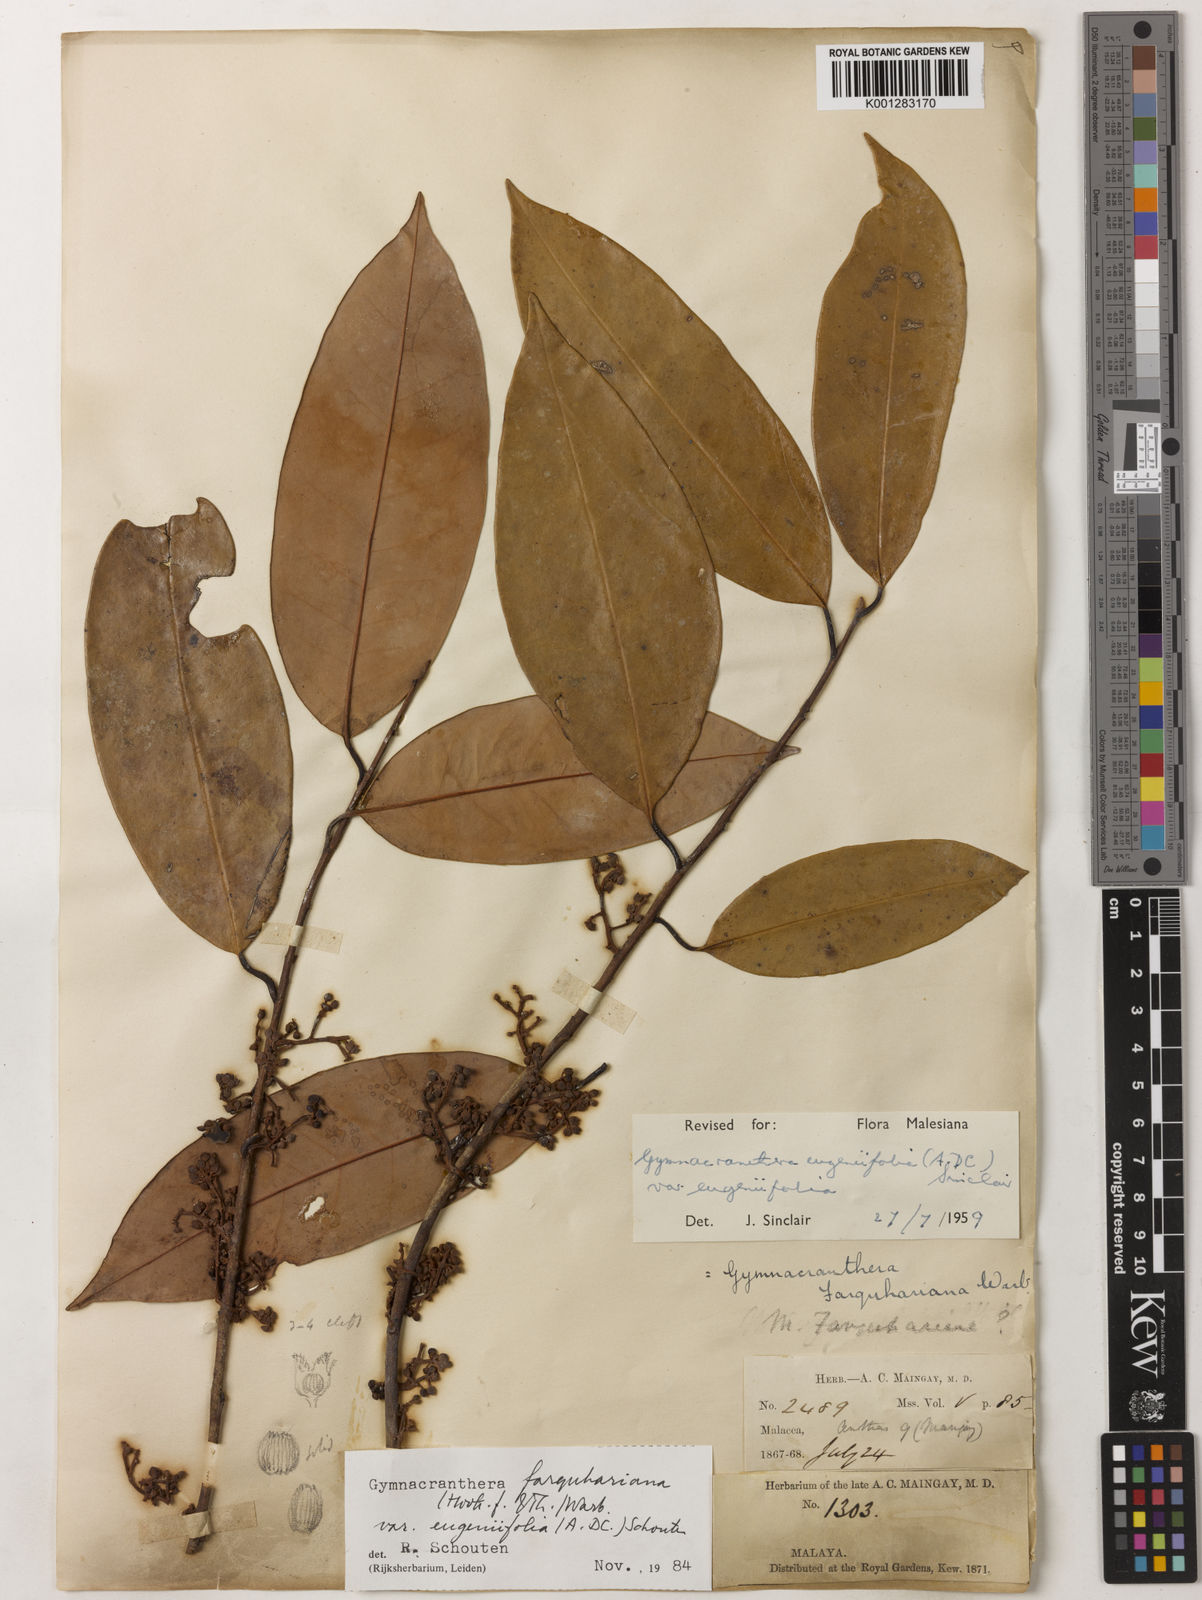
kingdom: Plantae
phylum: Tracheophyta
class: Magnoliopsida
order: Magnoliales
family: Myristicaceae
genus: Gymnacranthera
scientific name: Gymnacranthera farquhariana
